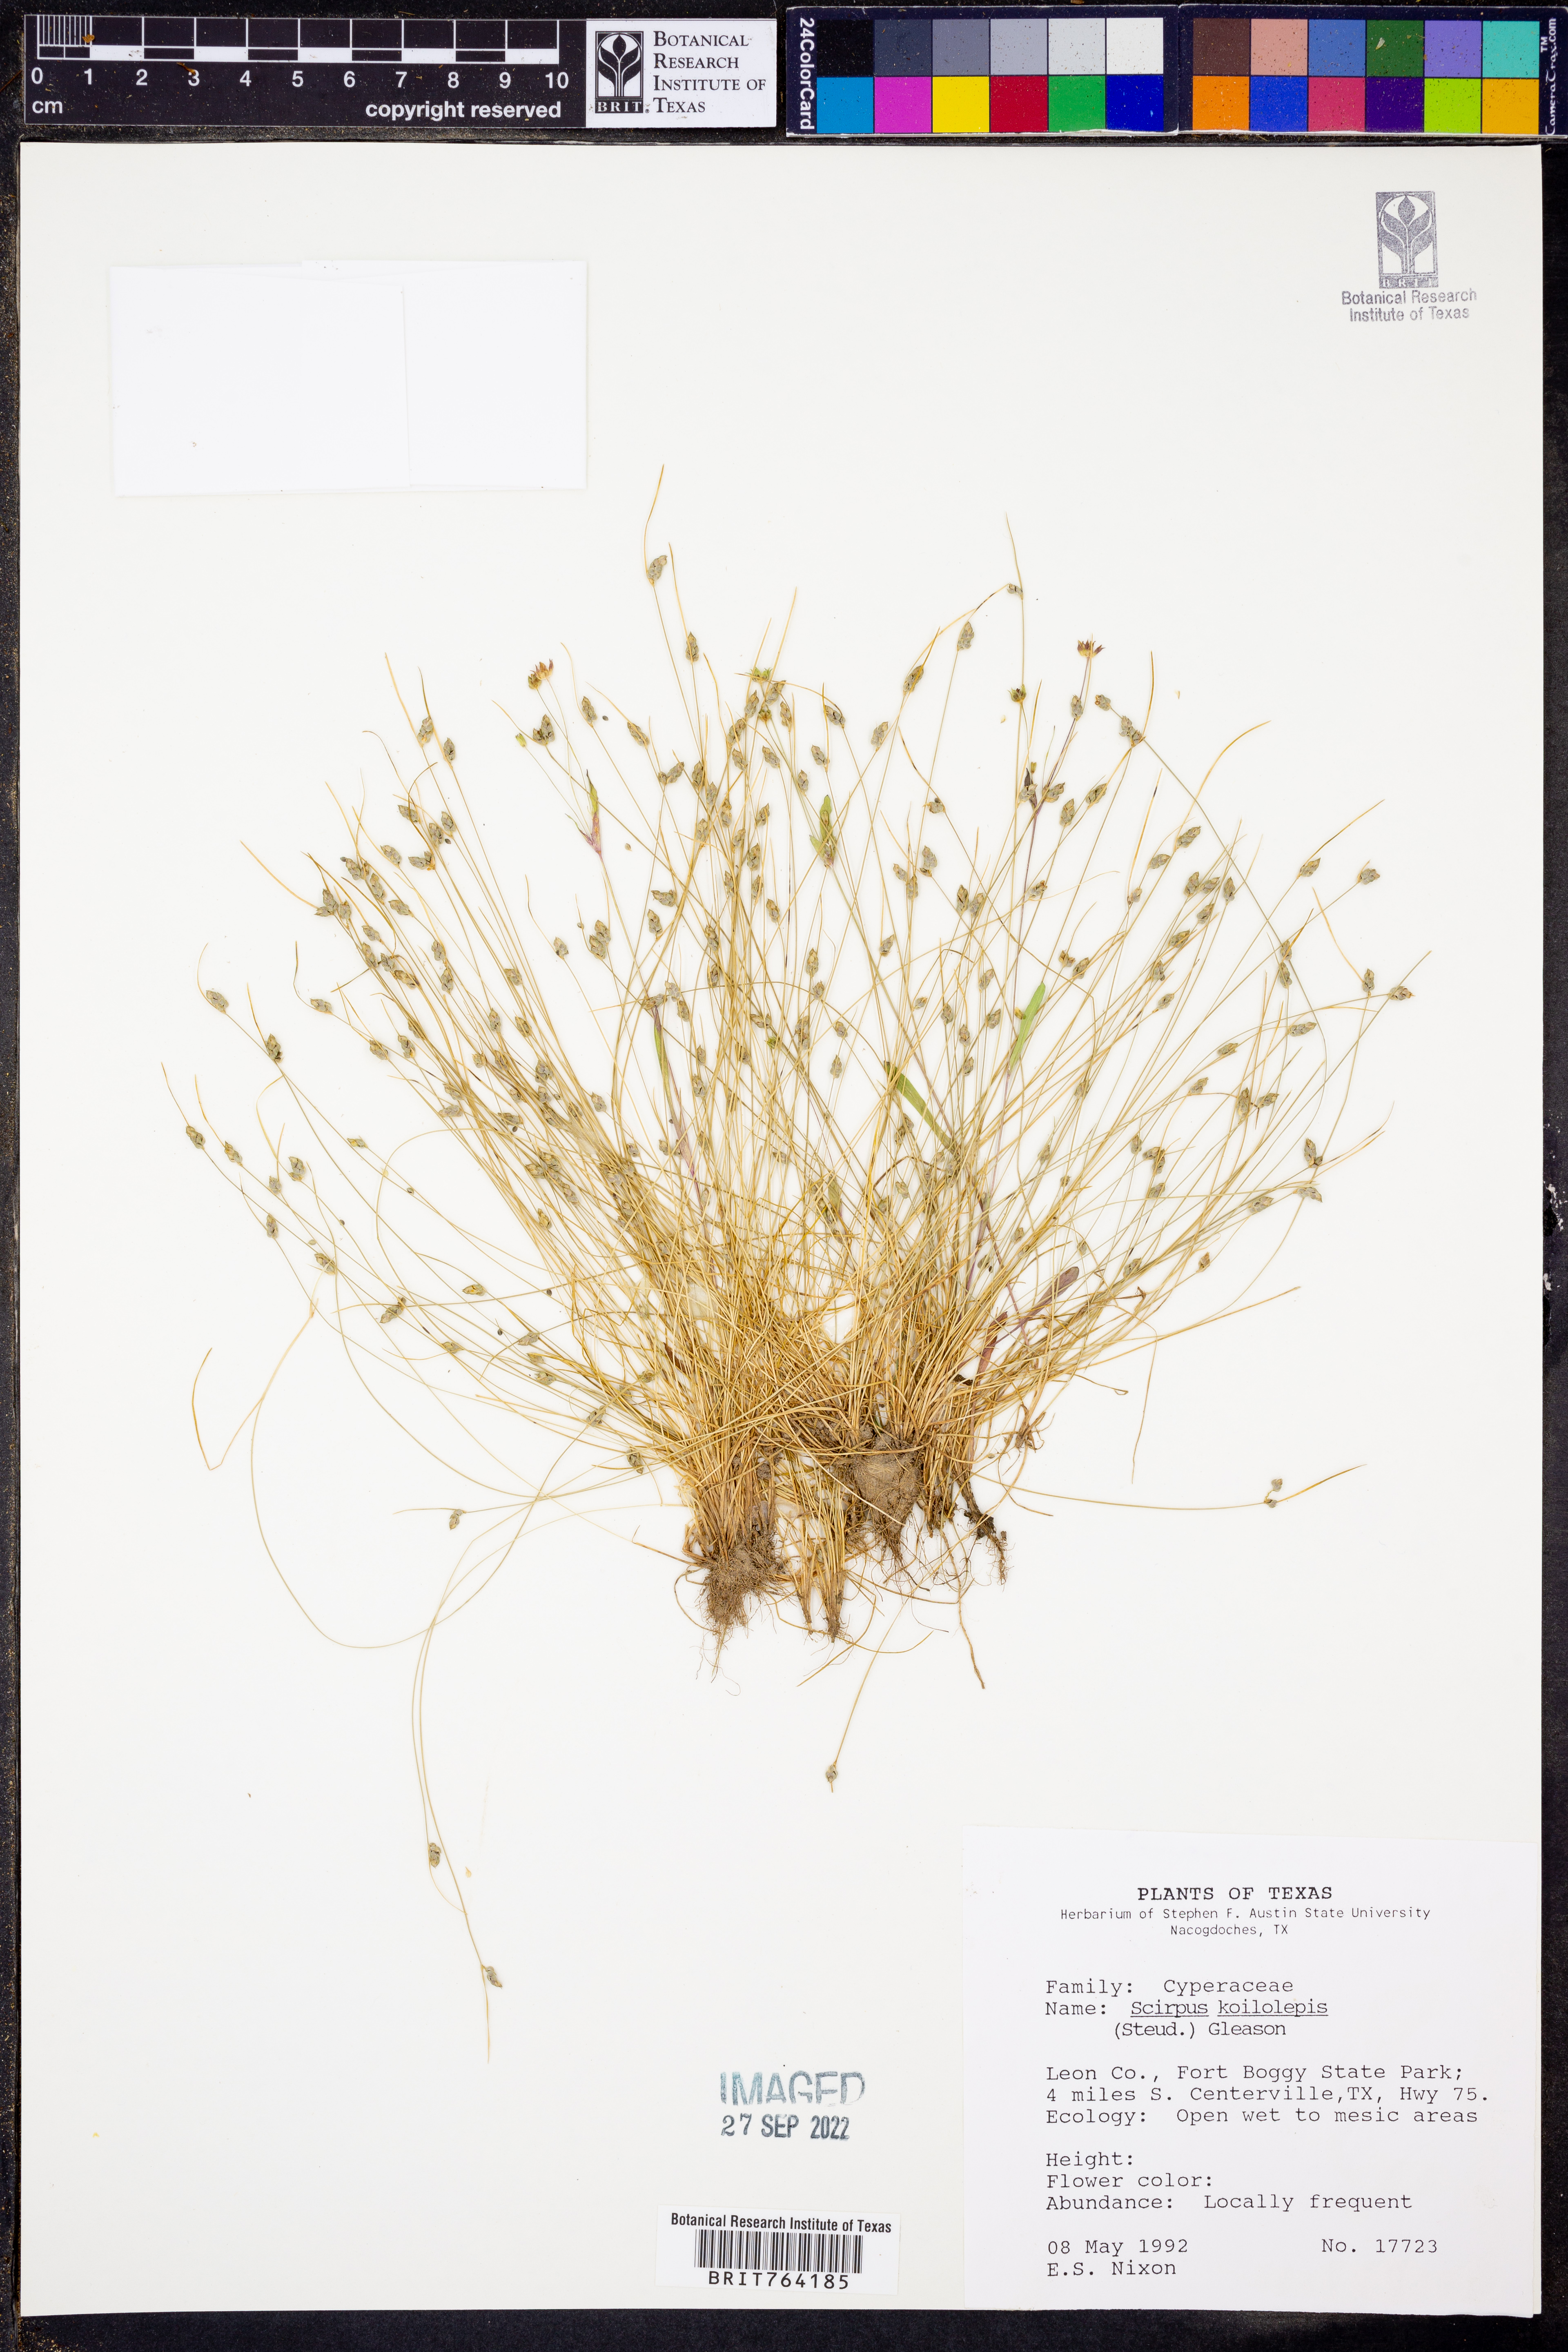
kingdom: Plantae
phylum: Tracheophyta
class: Liliopsida
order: Poales
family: Cyperaceae
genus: Isolepis
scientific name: Isolepis carinata
